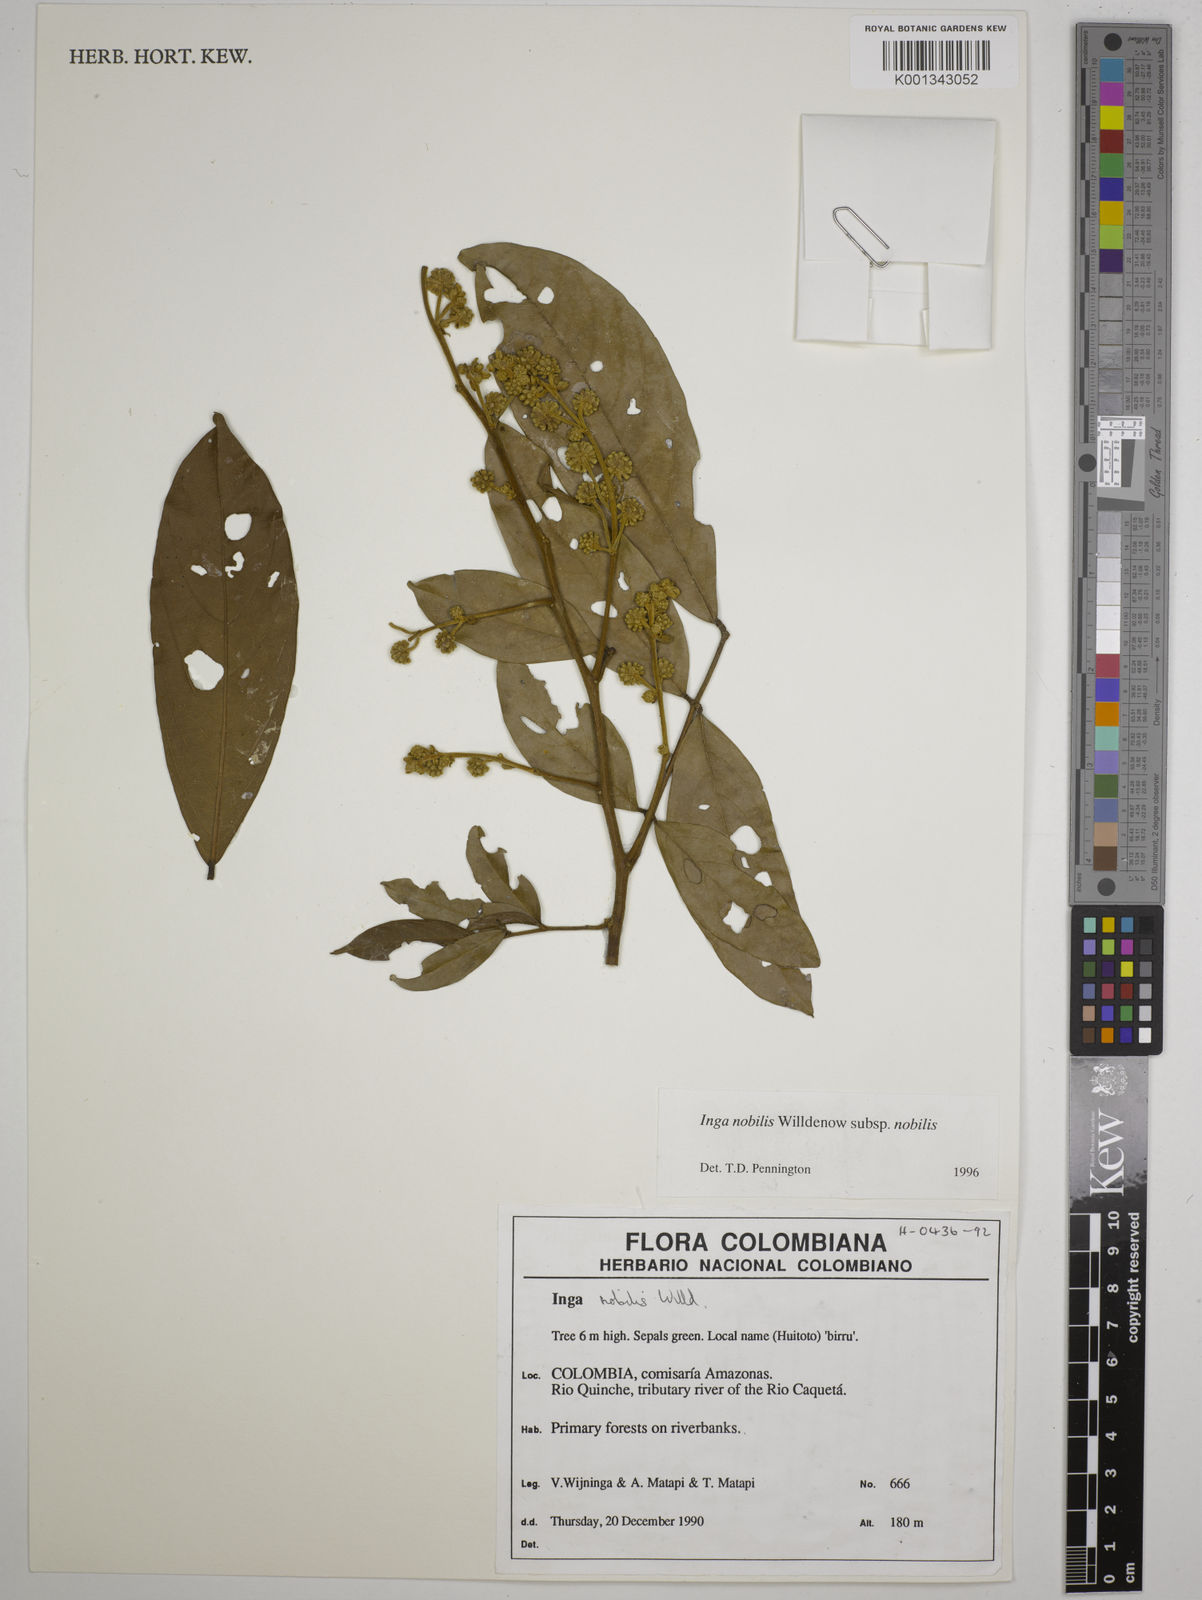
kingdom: Plantae
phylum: Tracheophyta
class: Magnoliopsida
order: Fabales
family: Fabaceae
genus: Inga
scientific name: Inga nobilis
